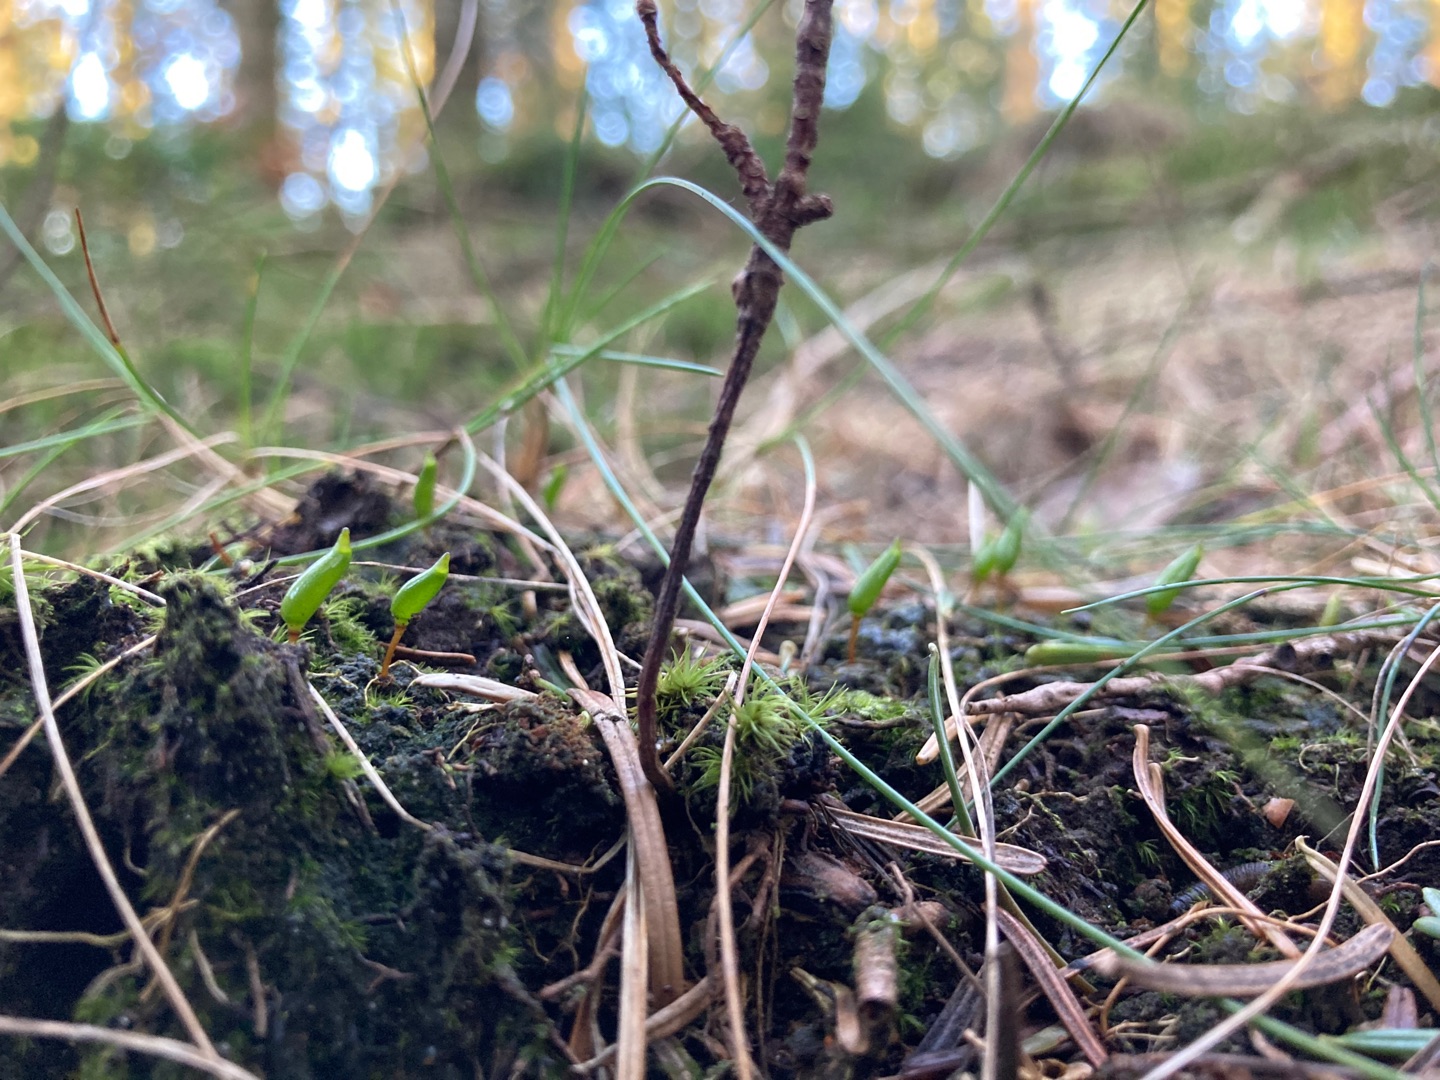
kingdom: Plantae
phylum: Bryophyta
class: Bryopsida
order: Buxbaumiales
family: Buxbaumiaceae
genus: Buxbaumia
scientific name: Buxbaumia viridis
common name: Grøn buxbaumia
